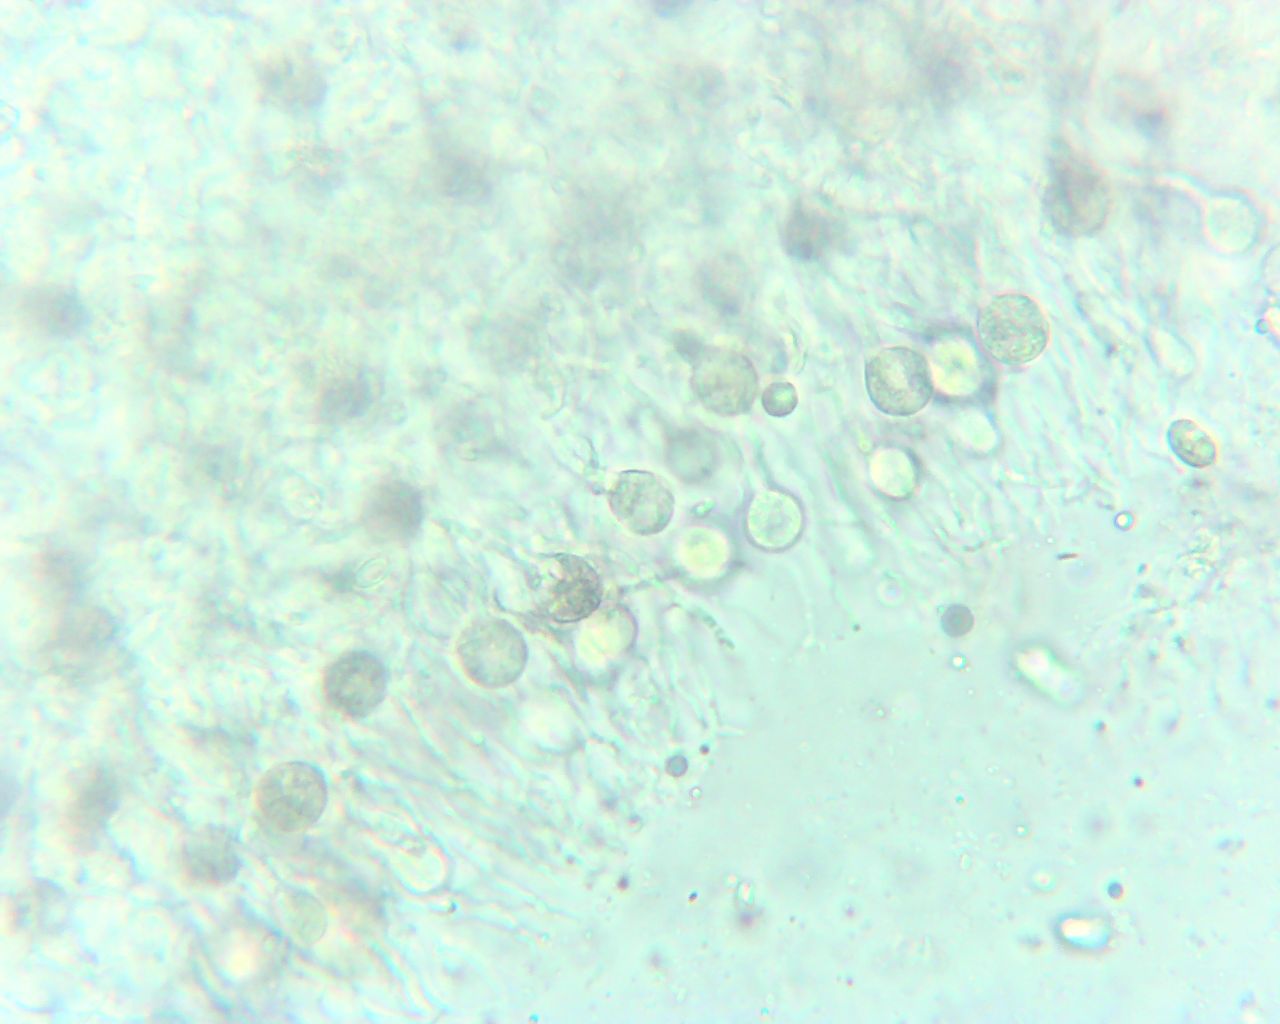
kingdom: Fungi
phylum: Basidiomycota
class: Agaricomycetes
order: Auriculariales
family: Hyaloriaceae
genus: Myxarium
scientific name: Myxarium
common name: bævretop
